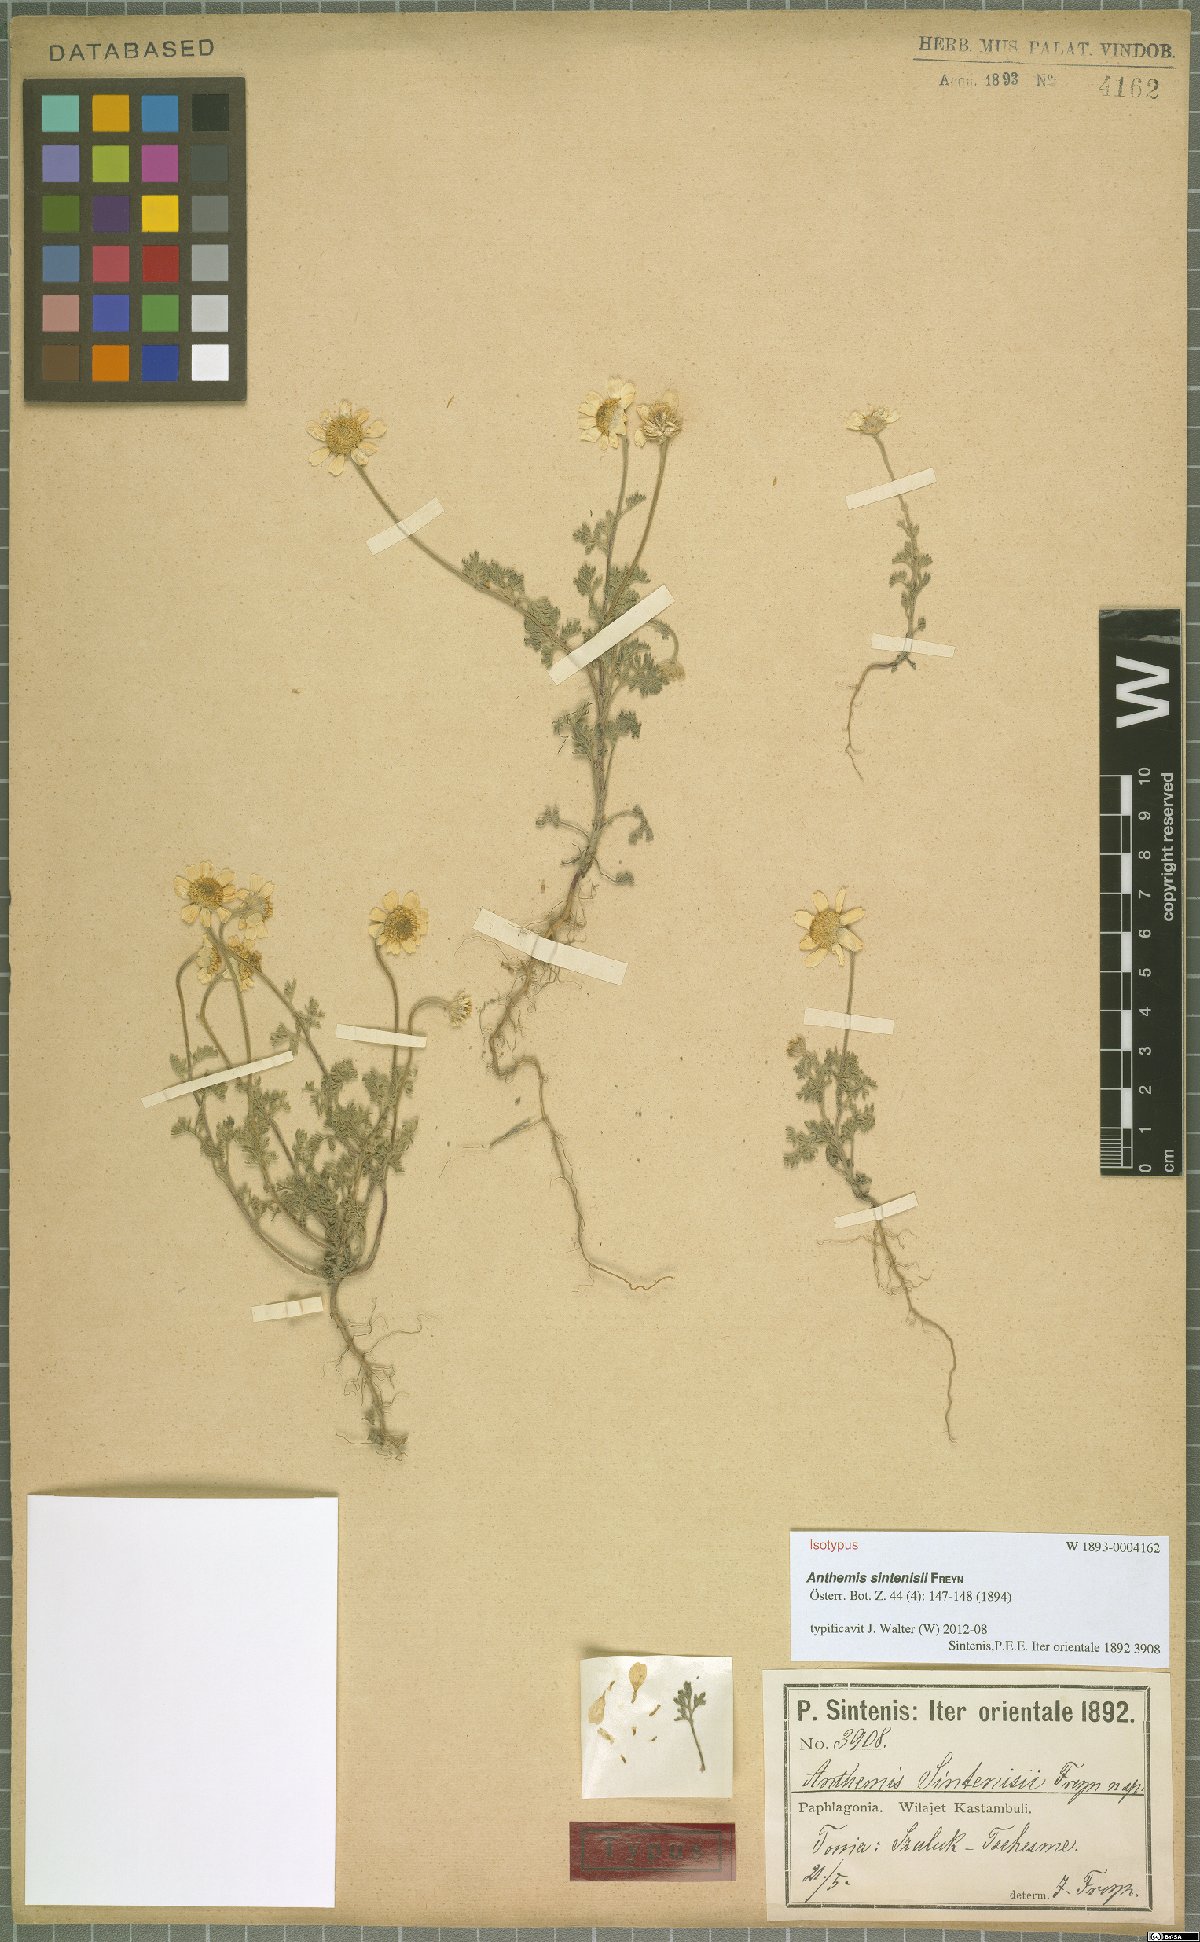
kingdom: Plantae
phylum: Tracheophyta
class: Magnoliopsida
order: Asterales
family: Asteraceae
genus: Anthemis
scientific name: Anthemis sintenisii
